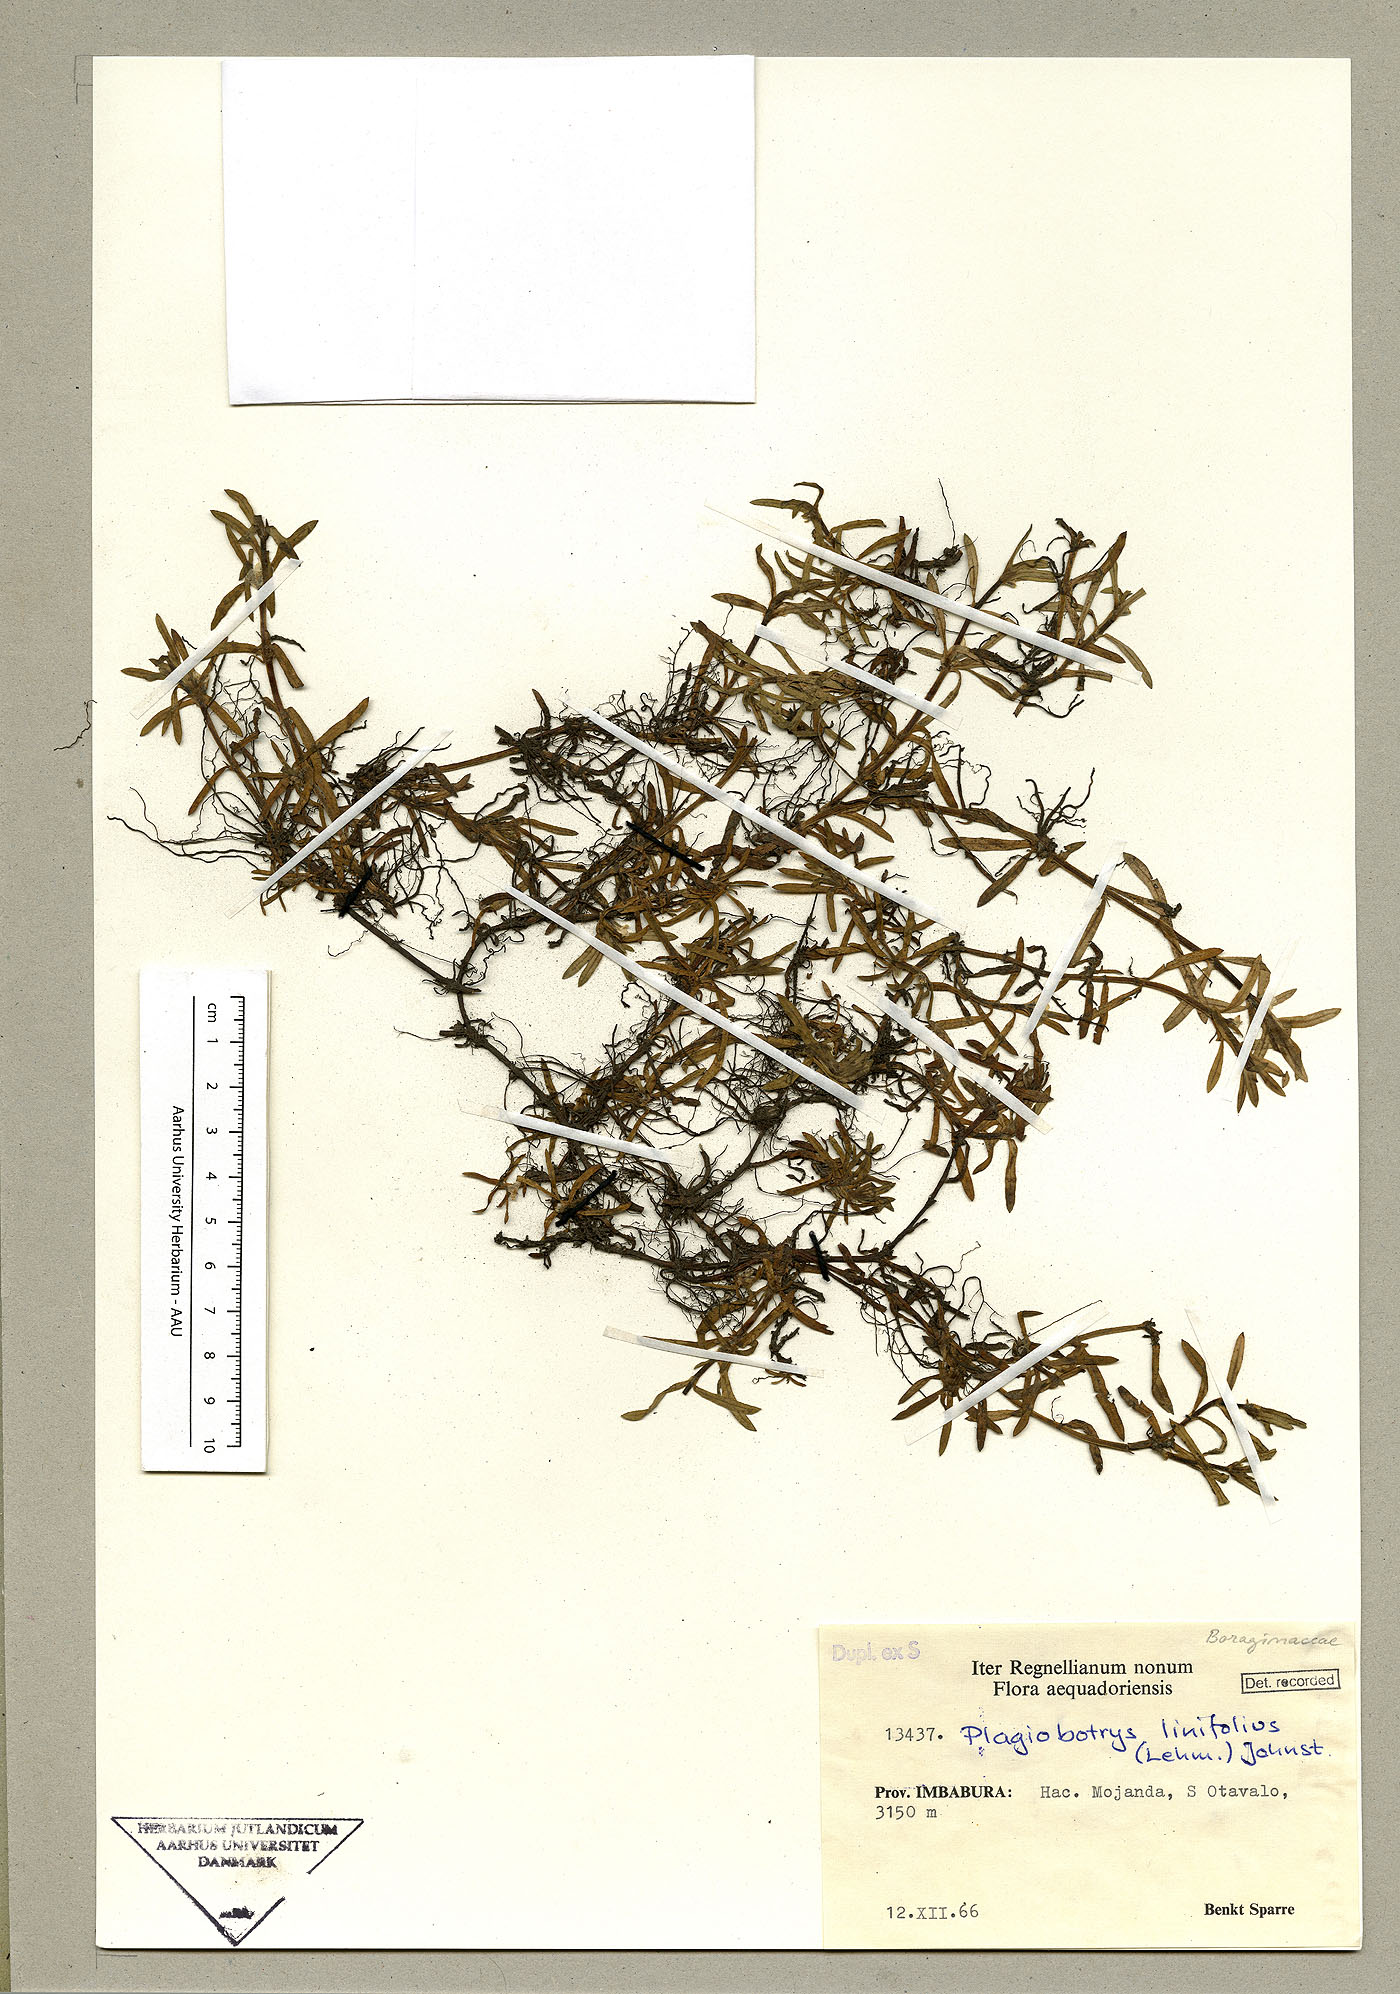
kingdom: Plantae
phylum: Tracheophyta
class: Magnoliopsida
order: Boraginales
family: Boraginaceae
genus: Plagiobothrys
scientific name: Plagiobothrys linifolius
